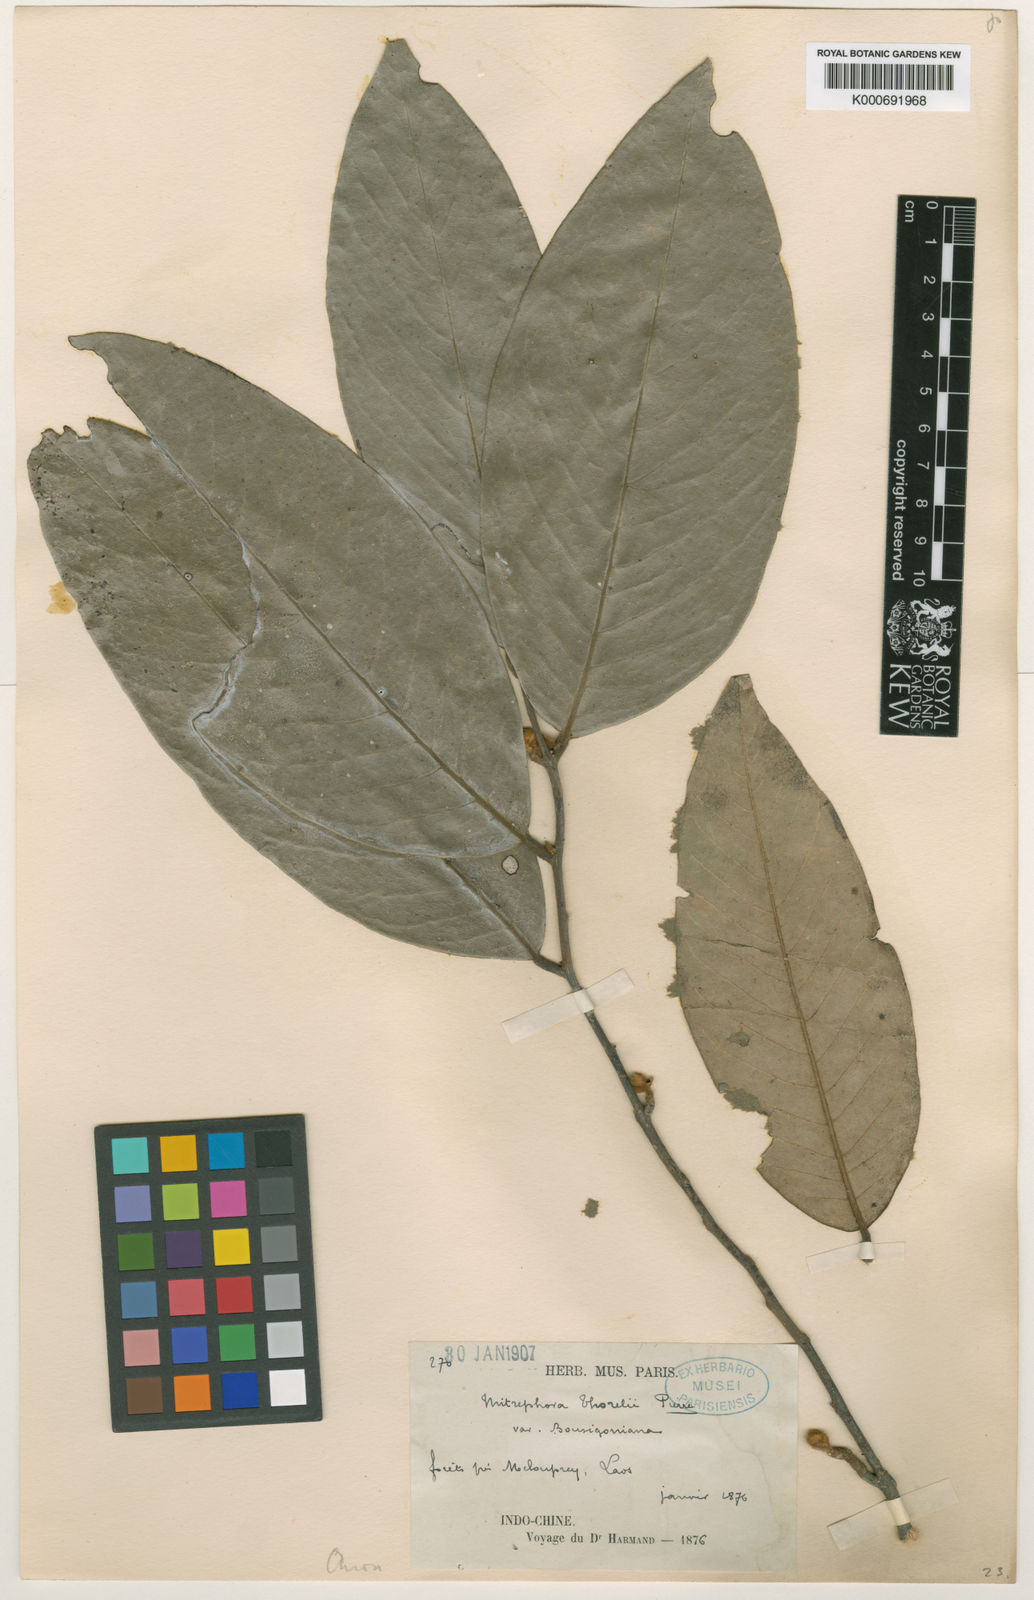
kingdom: Plantae
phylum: Tracheophyta
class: Magnoliopsida
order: Magnoliales
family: Annonaceae
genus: Mitrephora
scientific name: Mitrephora tomentosa
